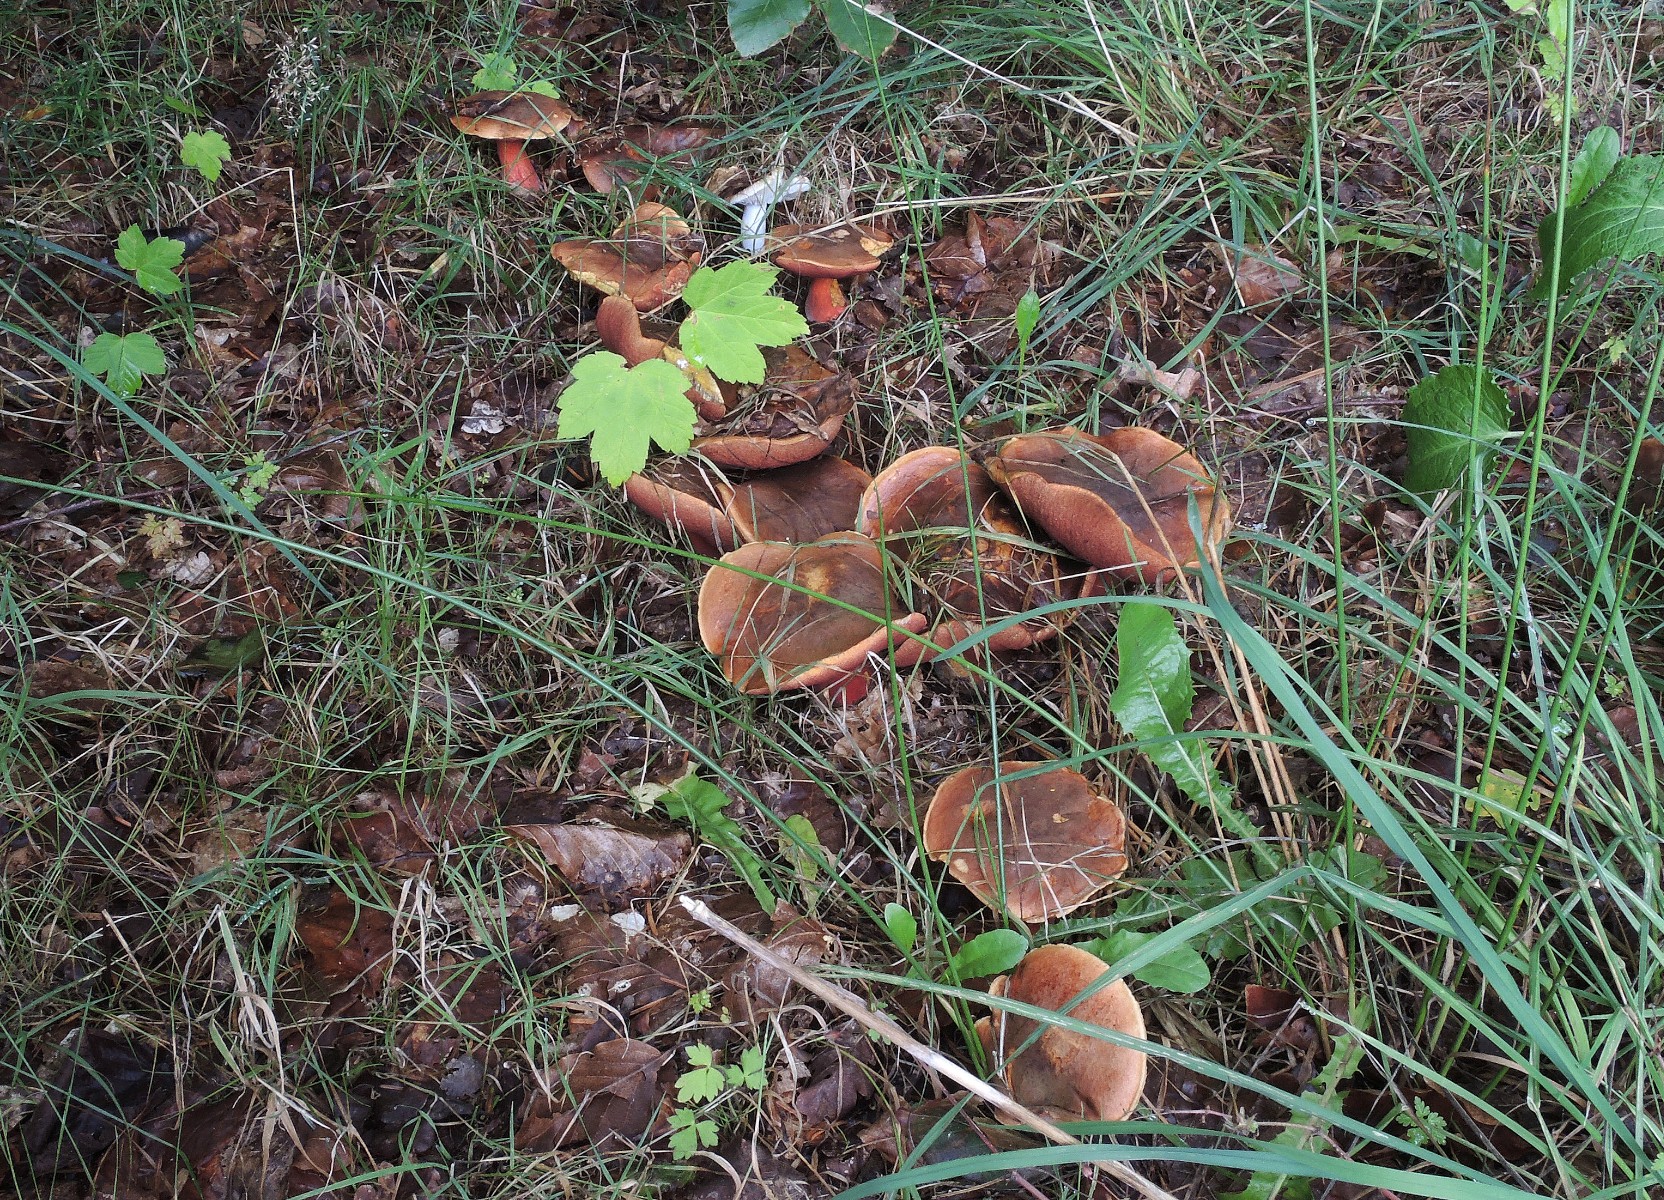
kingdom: Fungi
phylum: Basidiomycota
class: Agaricomycetes
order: Boletales
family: Boletaceae
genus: Neoboletus
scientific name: Neoboletus erythropus
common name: punktstokket indigorørhat
